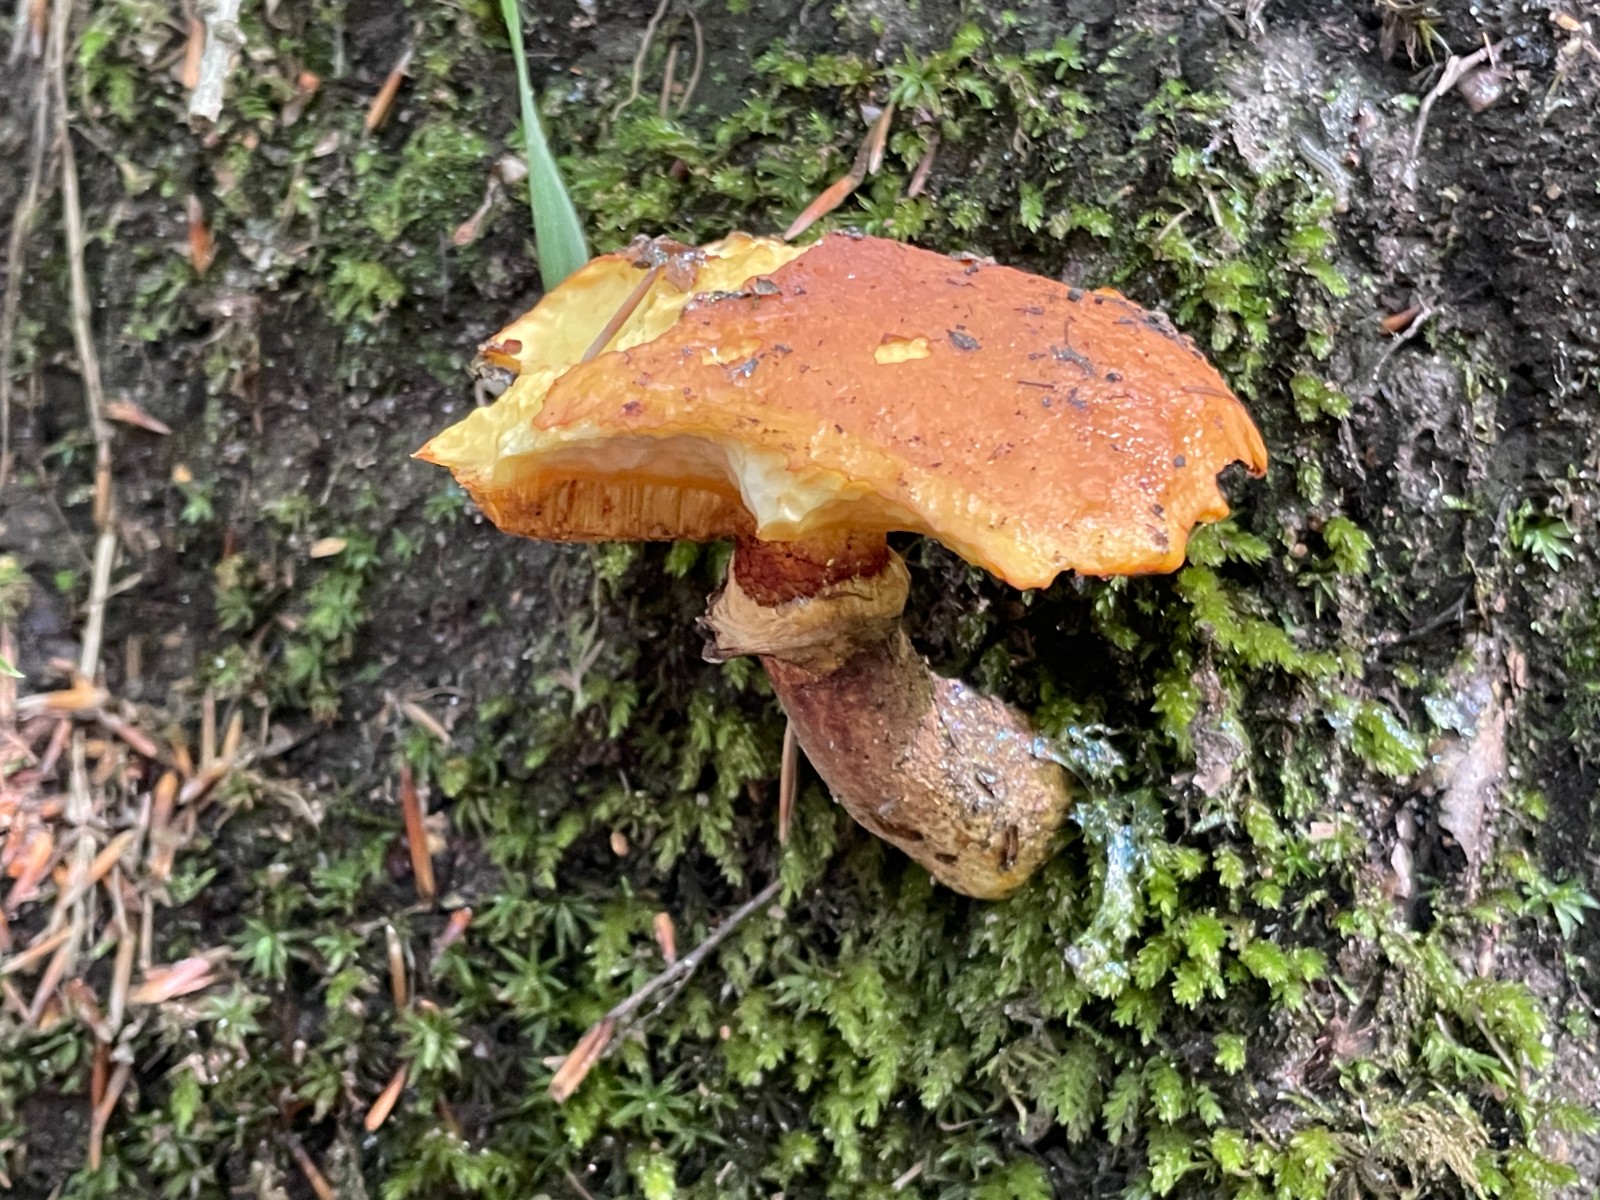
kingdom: Fungi
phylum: Basidiomycota
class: Agaricomycetes
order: Boletales
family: Suillaceae
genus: Suillus
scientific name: Suillus grevillei
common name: lærke-slimrørhat
